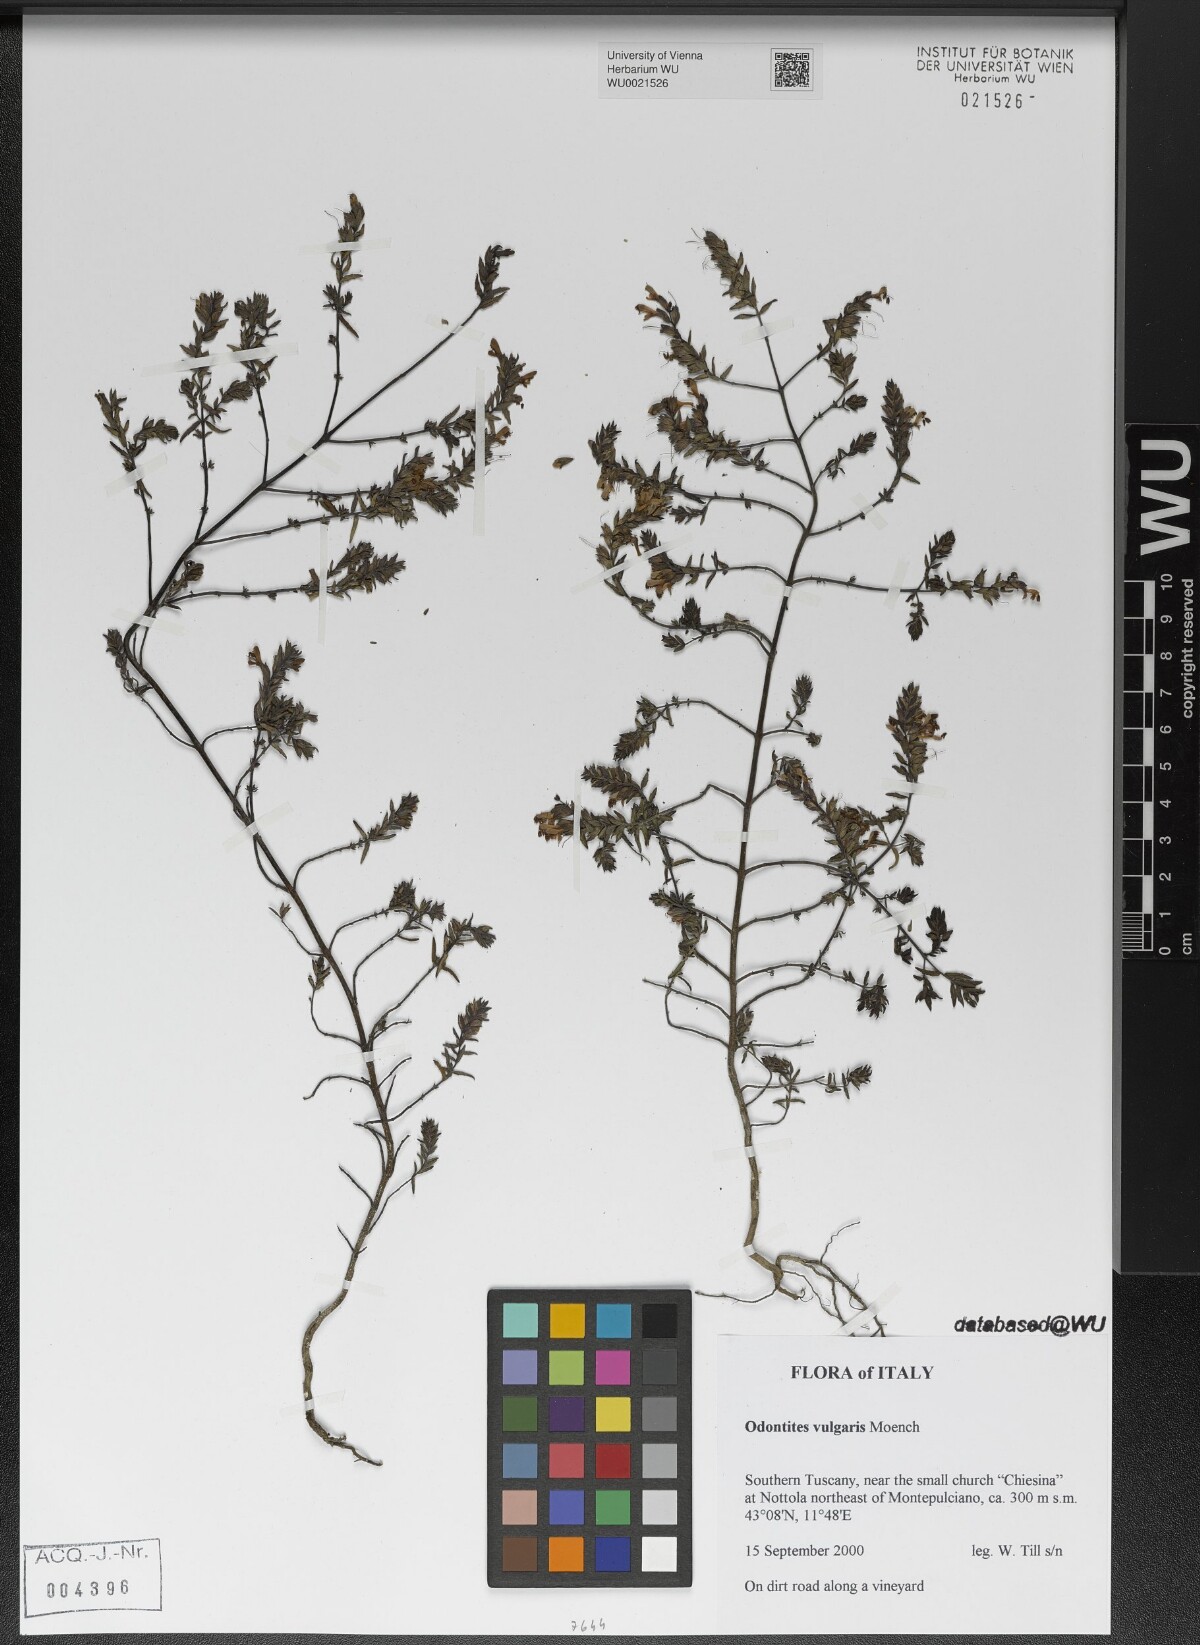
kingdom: Plantae
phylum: Tracheophyta
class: Magnoliopsida
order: Lamiales
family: Orobanchaceae
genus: Odontites
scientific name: Odontites vulgaris
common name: Broomrape
